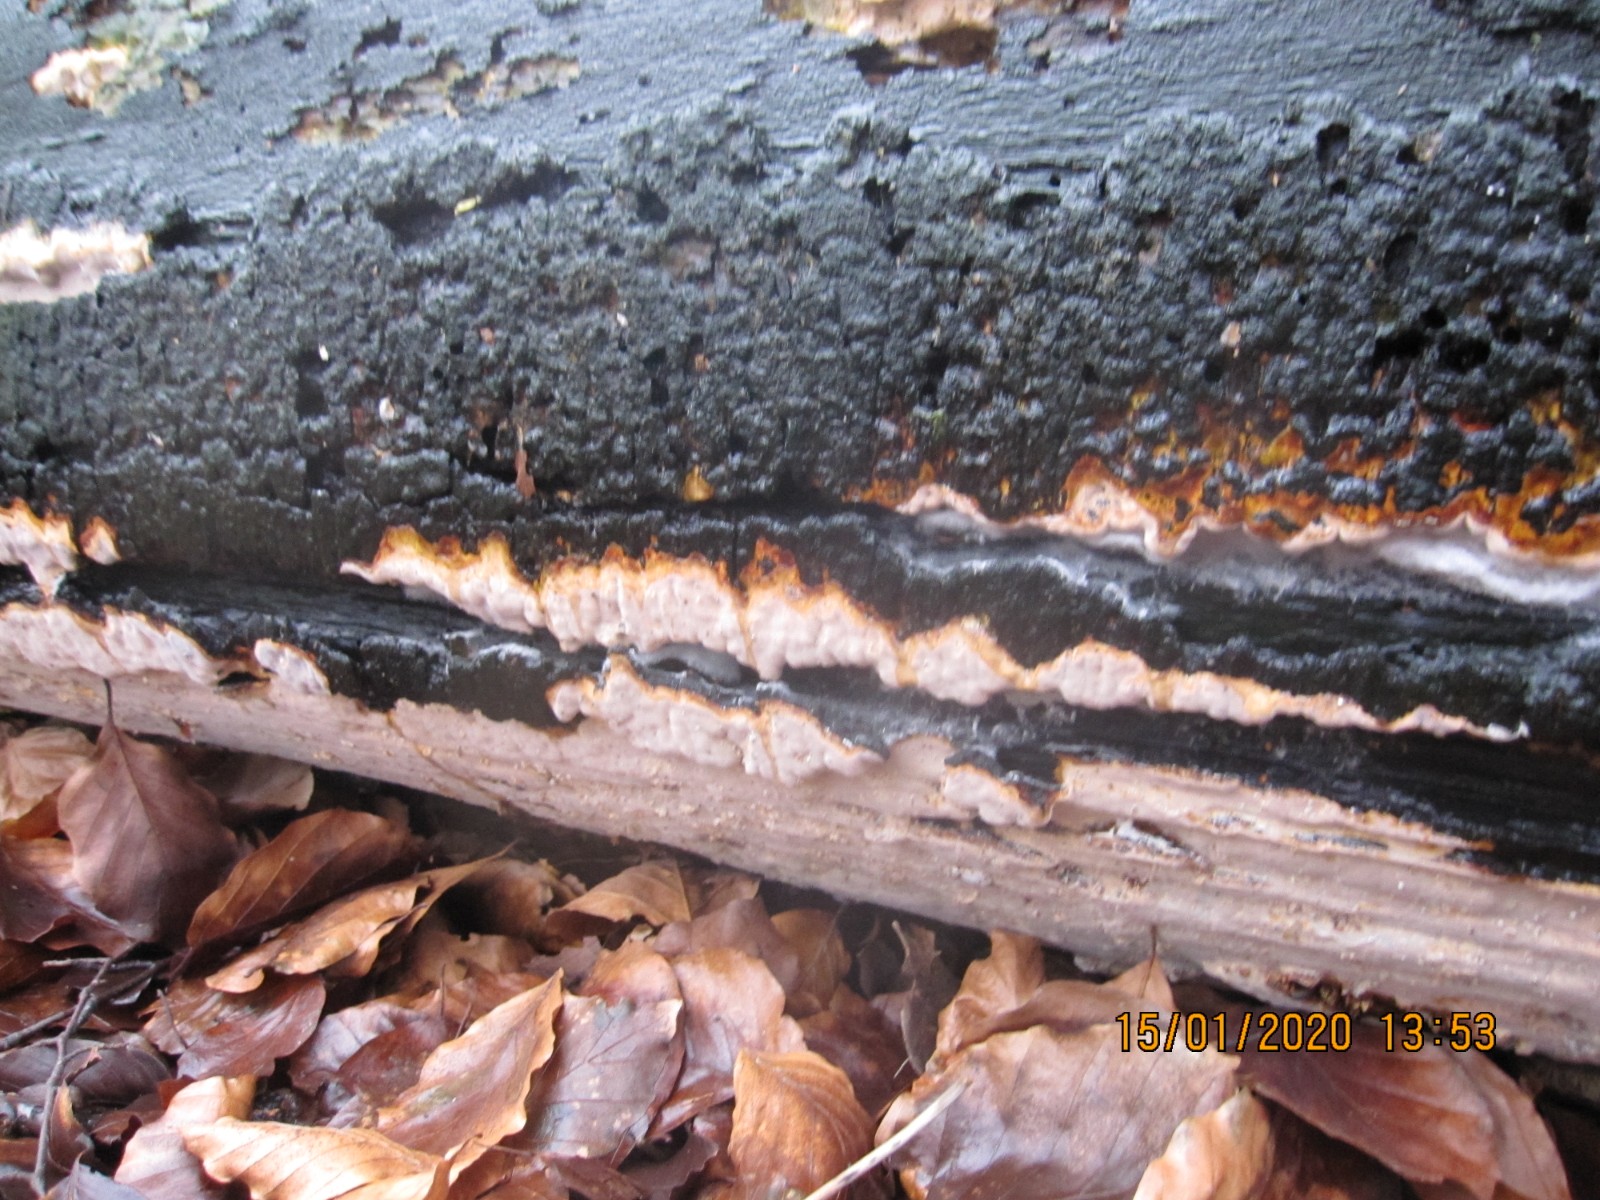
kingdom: Fungi
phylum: Basidiomycota
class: Agaricomycetes
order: Russulales
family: Peniophoraceae
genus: Scytinostroma
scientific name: Scytinostroma hemidichophyticum
